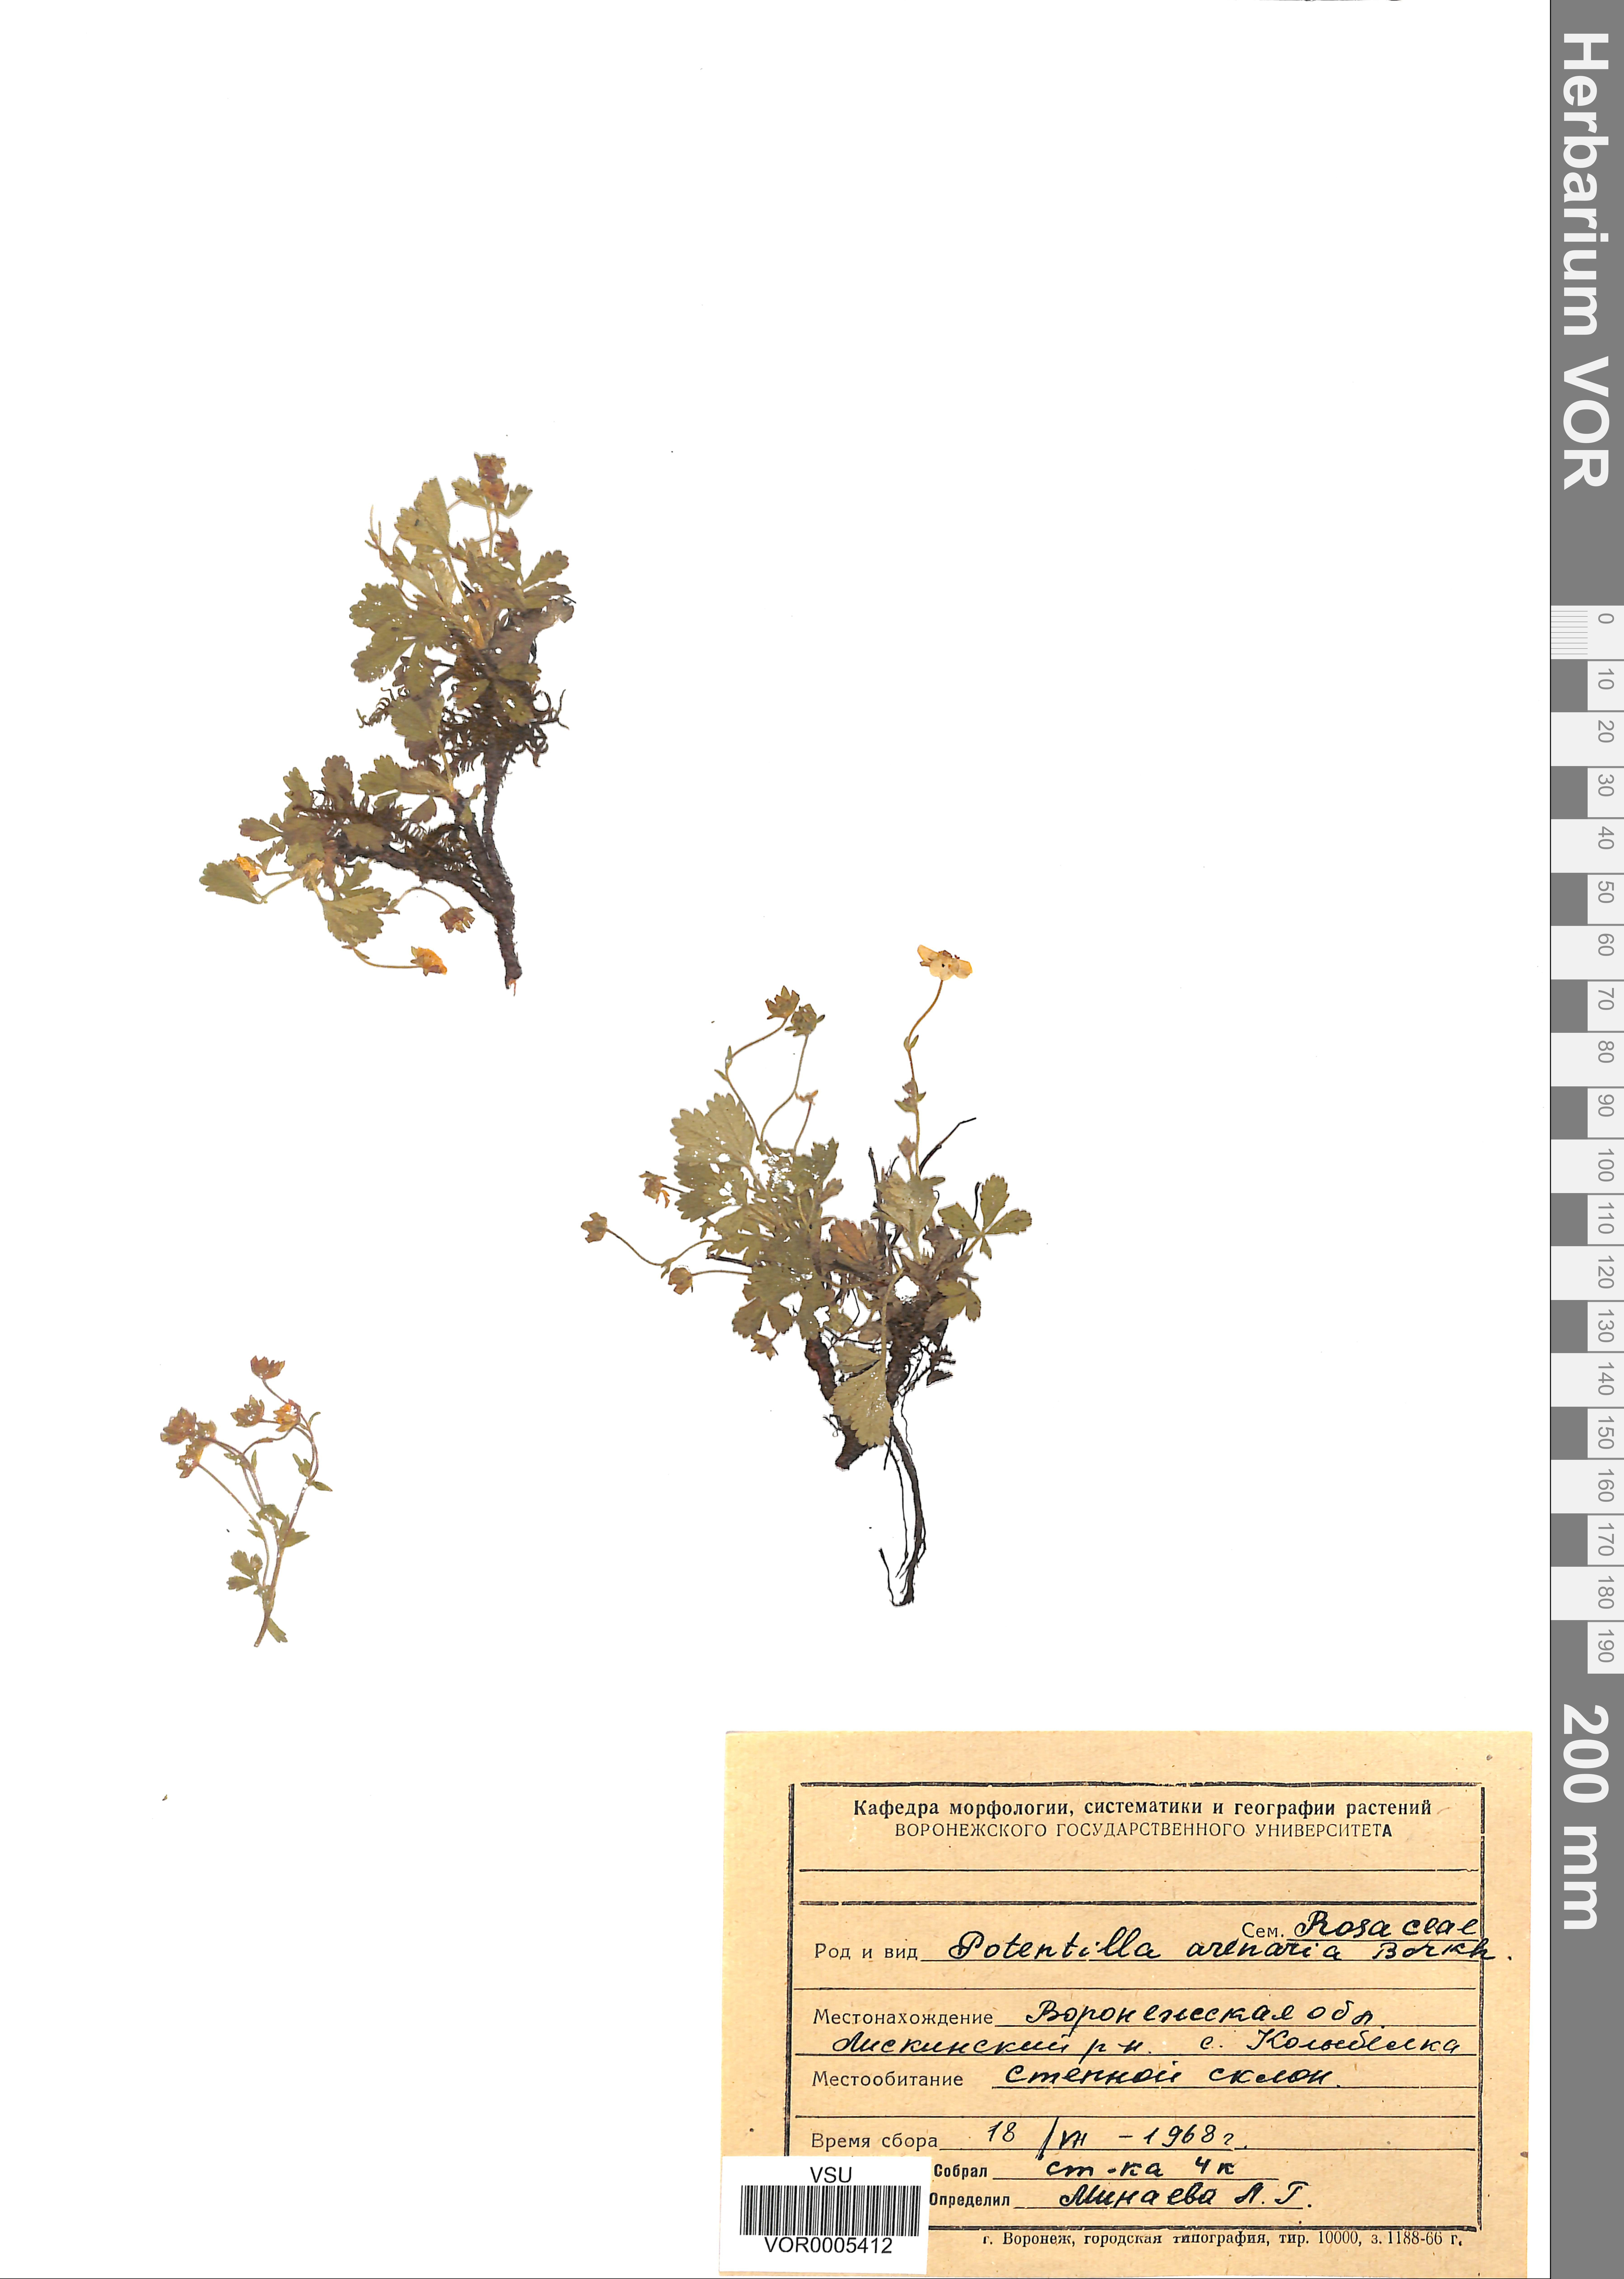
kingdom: Plantae
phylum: Tracheophyta
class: Magnoliopsida
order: Rosales
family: Rosaceae
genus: Potentilla
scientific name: Potentilla cinerea
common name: Ashy cinquefoil
